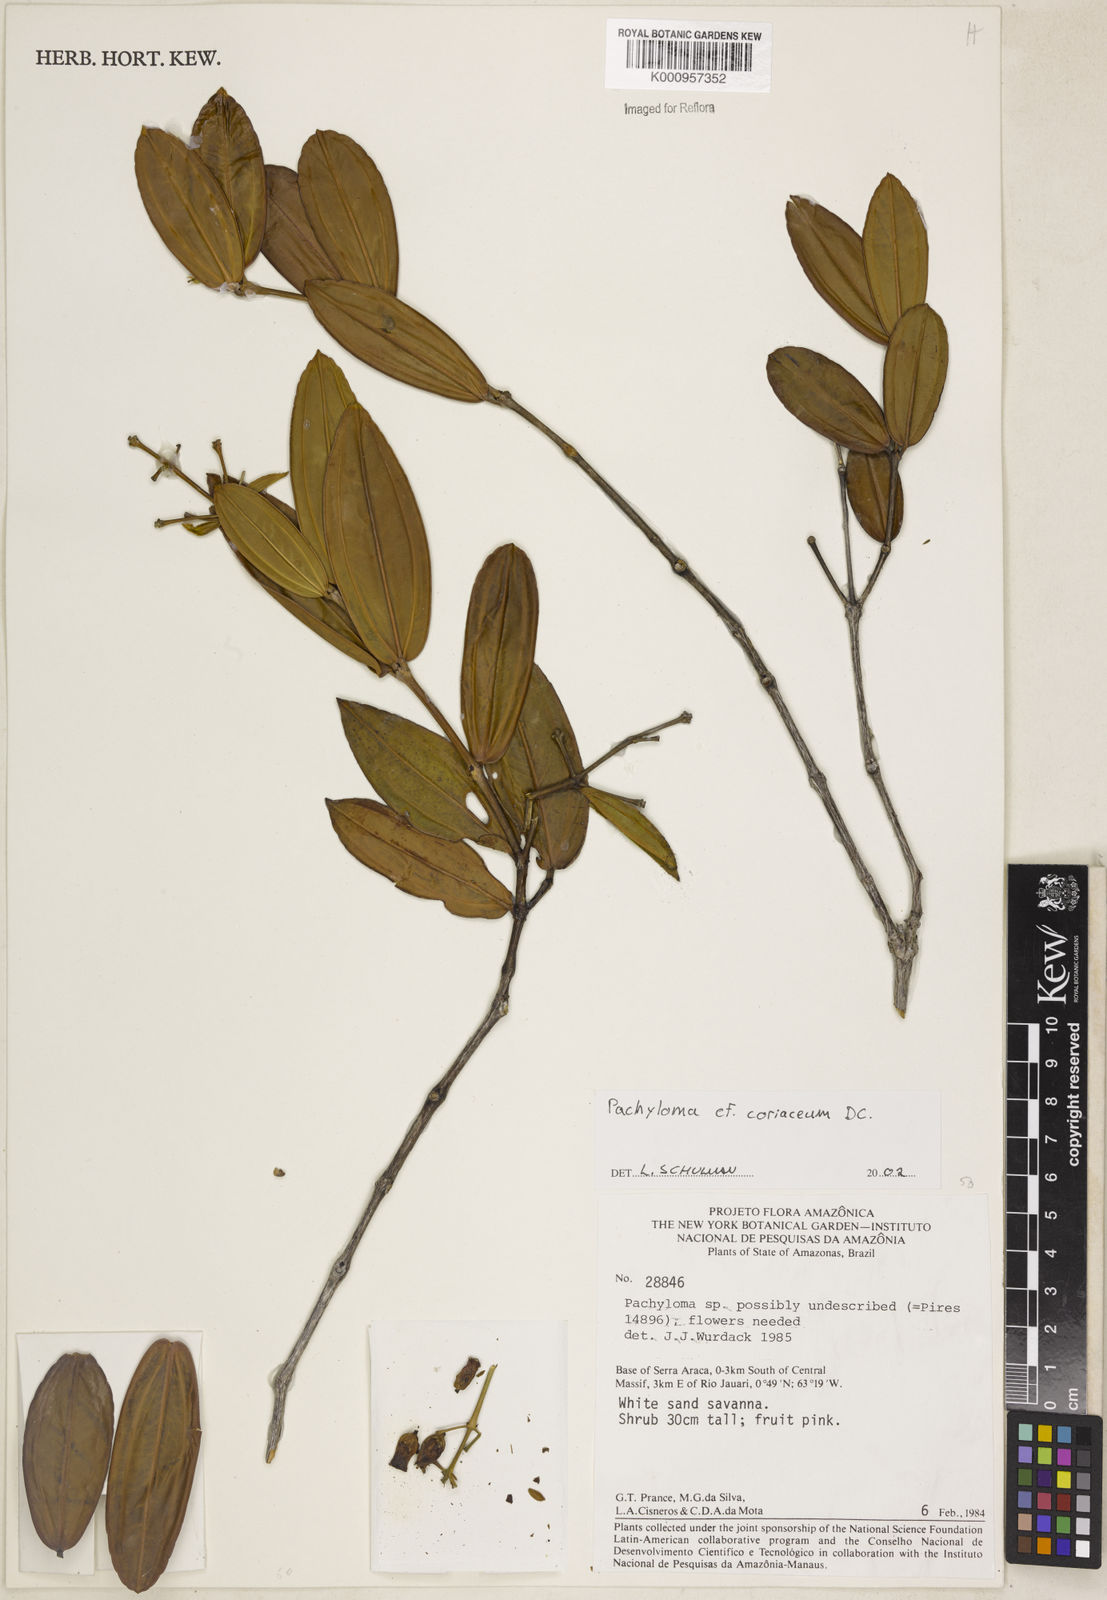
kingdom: Plantae
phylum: Tracheophyta
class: Magnoliopsida
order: Myrtales
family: Melastomataceae
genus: Pachyloma
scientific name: Pachyloma coriaceum
